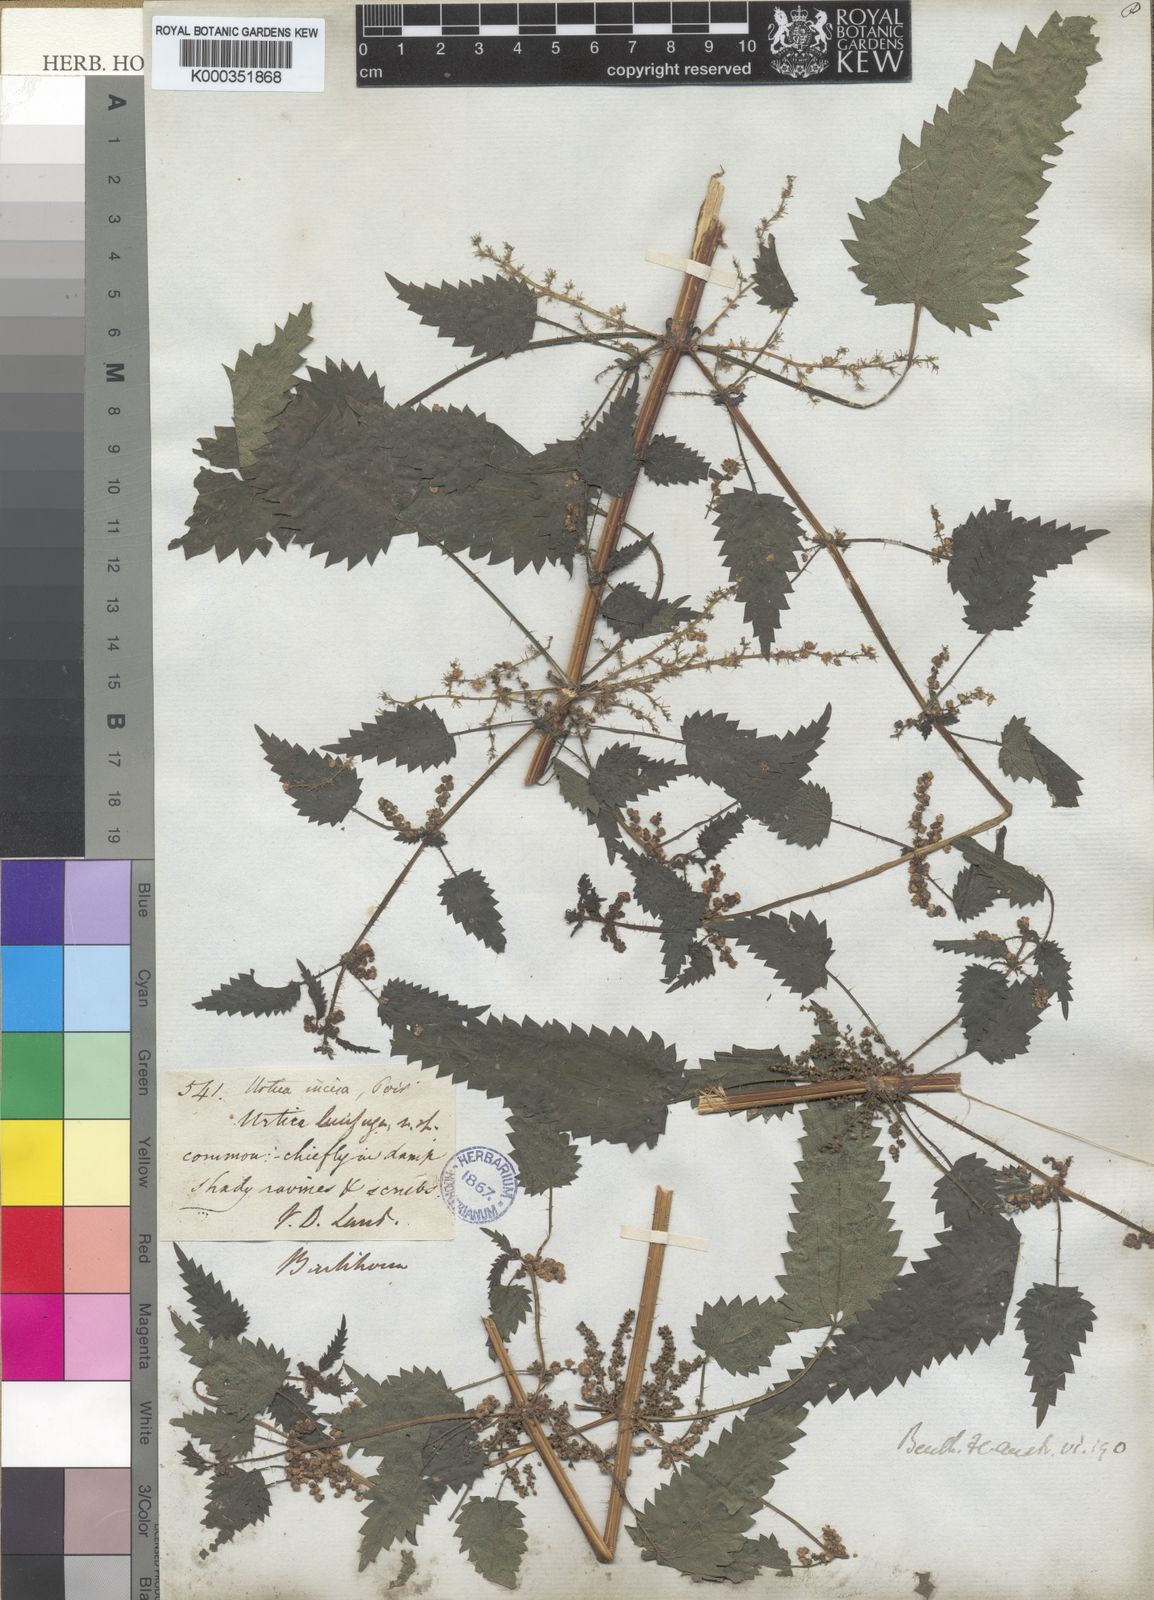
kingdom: Plantae
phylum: Tracheophyta
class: Magnoliopsida
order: Rosales
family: Urticaceae
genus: Urtica
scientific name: Urtica incisa
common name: Scrub nettle
